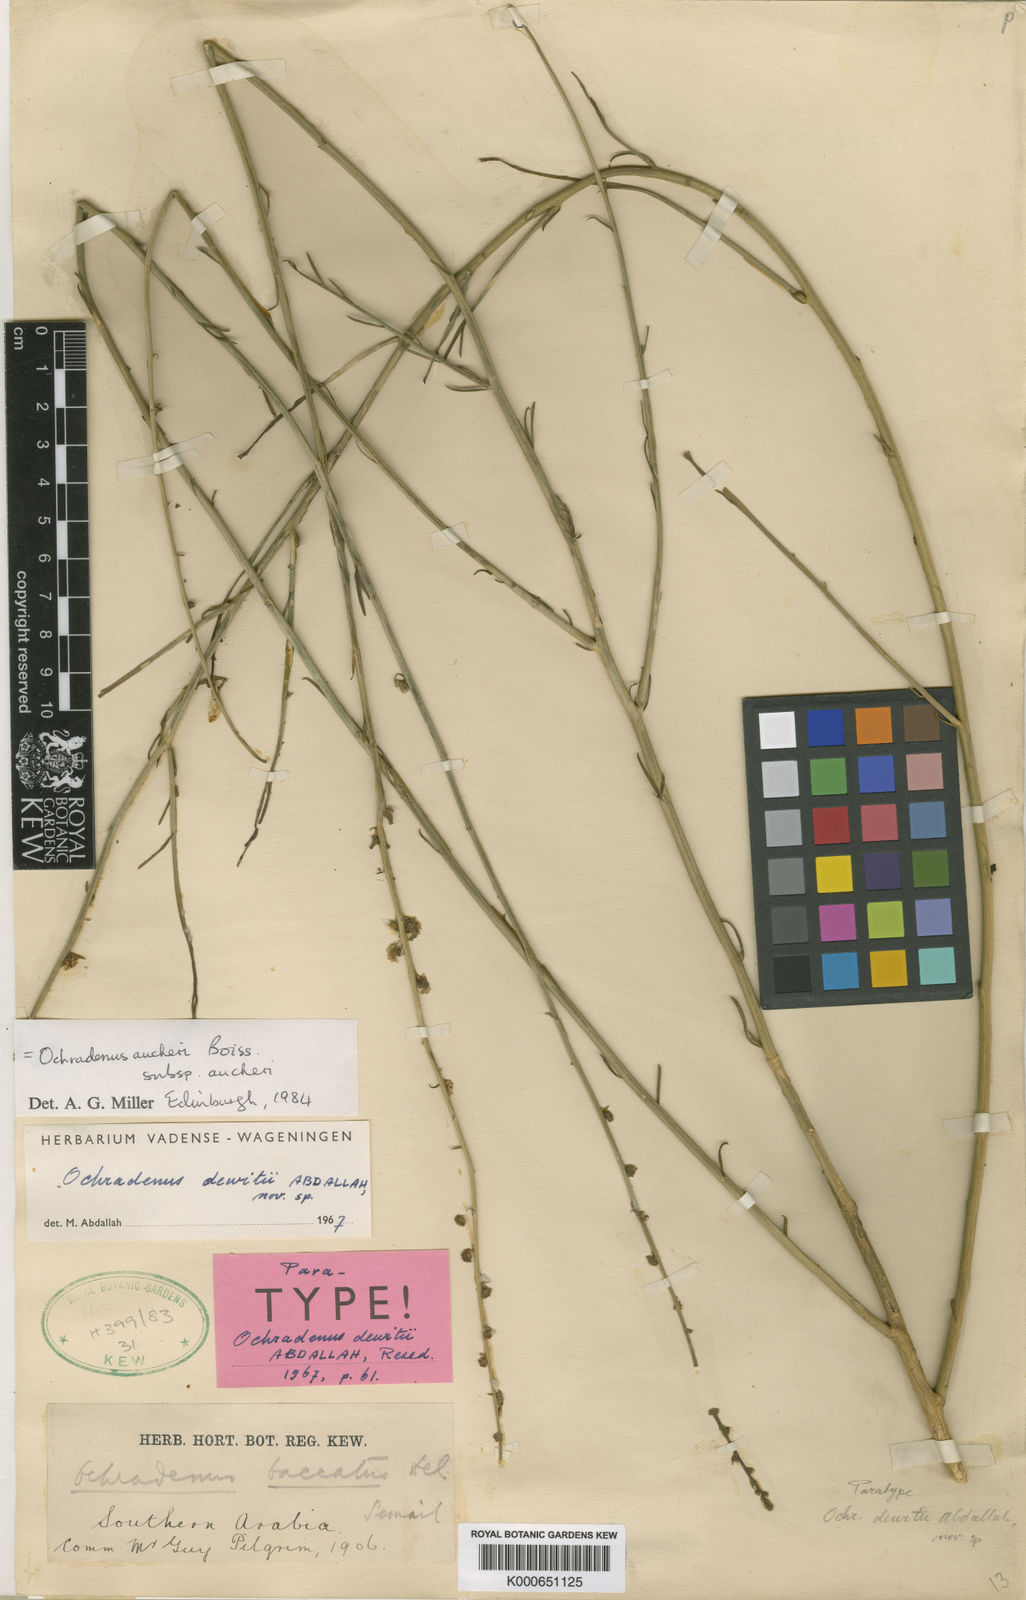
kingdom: Plantae
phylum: Tracheophyta
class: Magnoliopsida
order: Brassicales
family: Resedaceae
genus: Ochradiscus
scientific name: Ochradiscus aucheri
